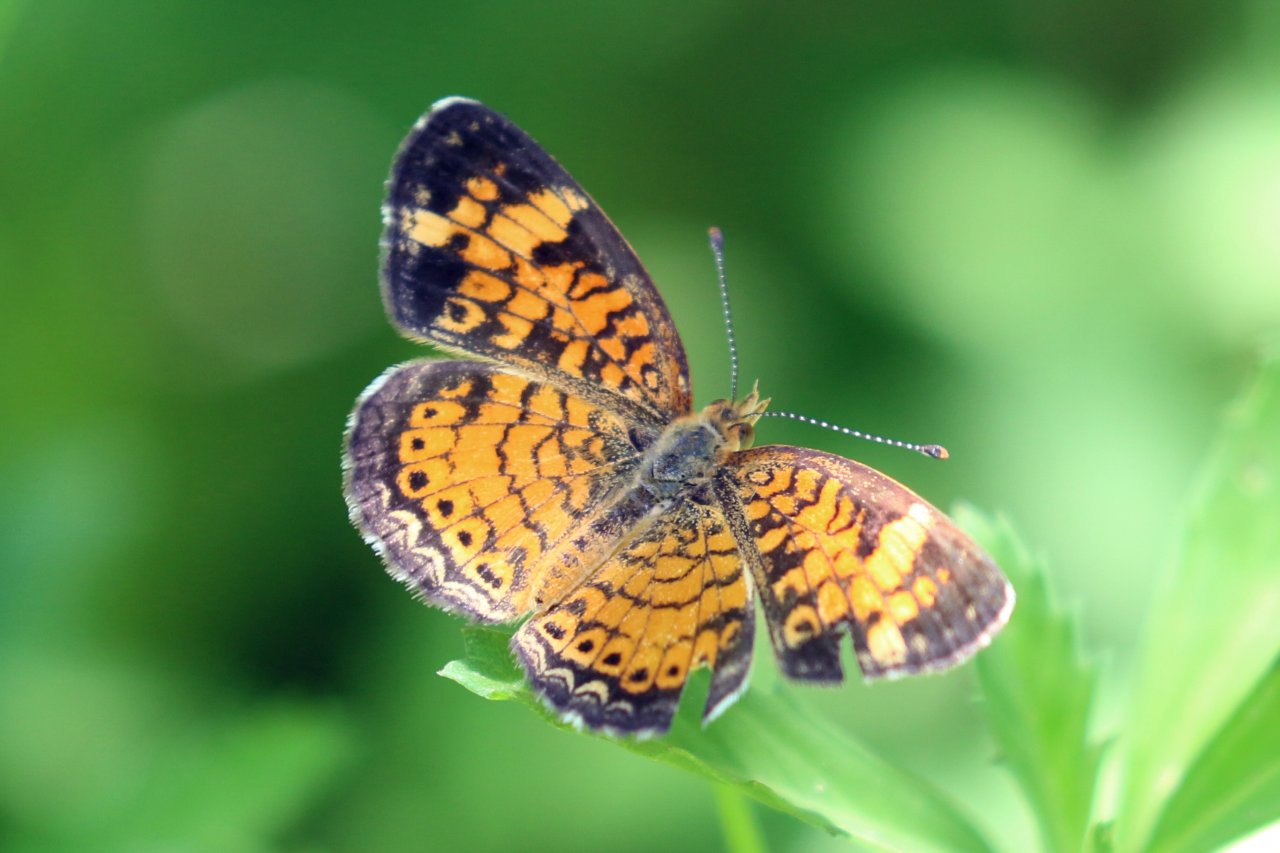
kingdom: Animalia
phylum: Arthropoda
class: Insecta
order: Lepidoptera
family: Nymphalidae
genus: Phyciodes
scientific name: Phyciodes tharos
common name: Pearl Crescent
